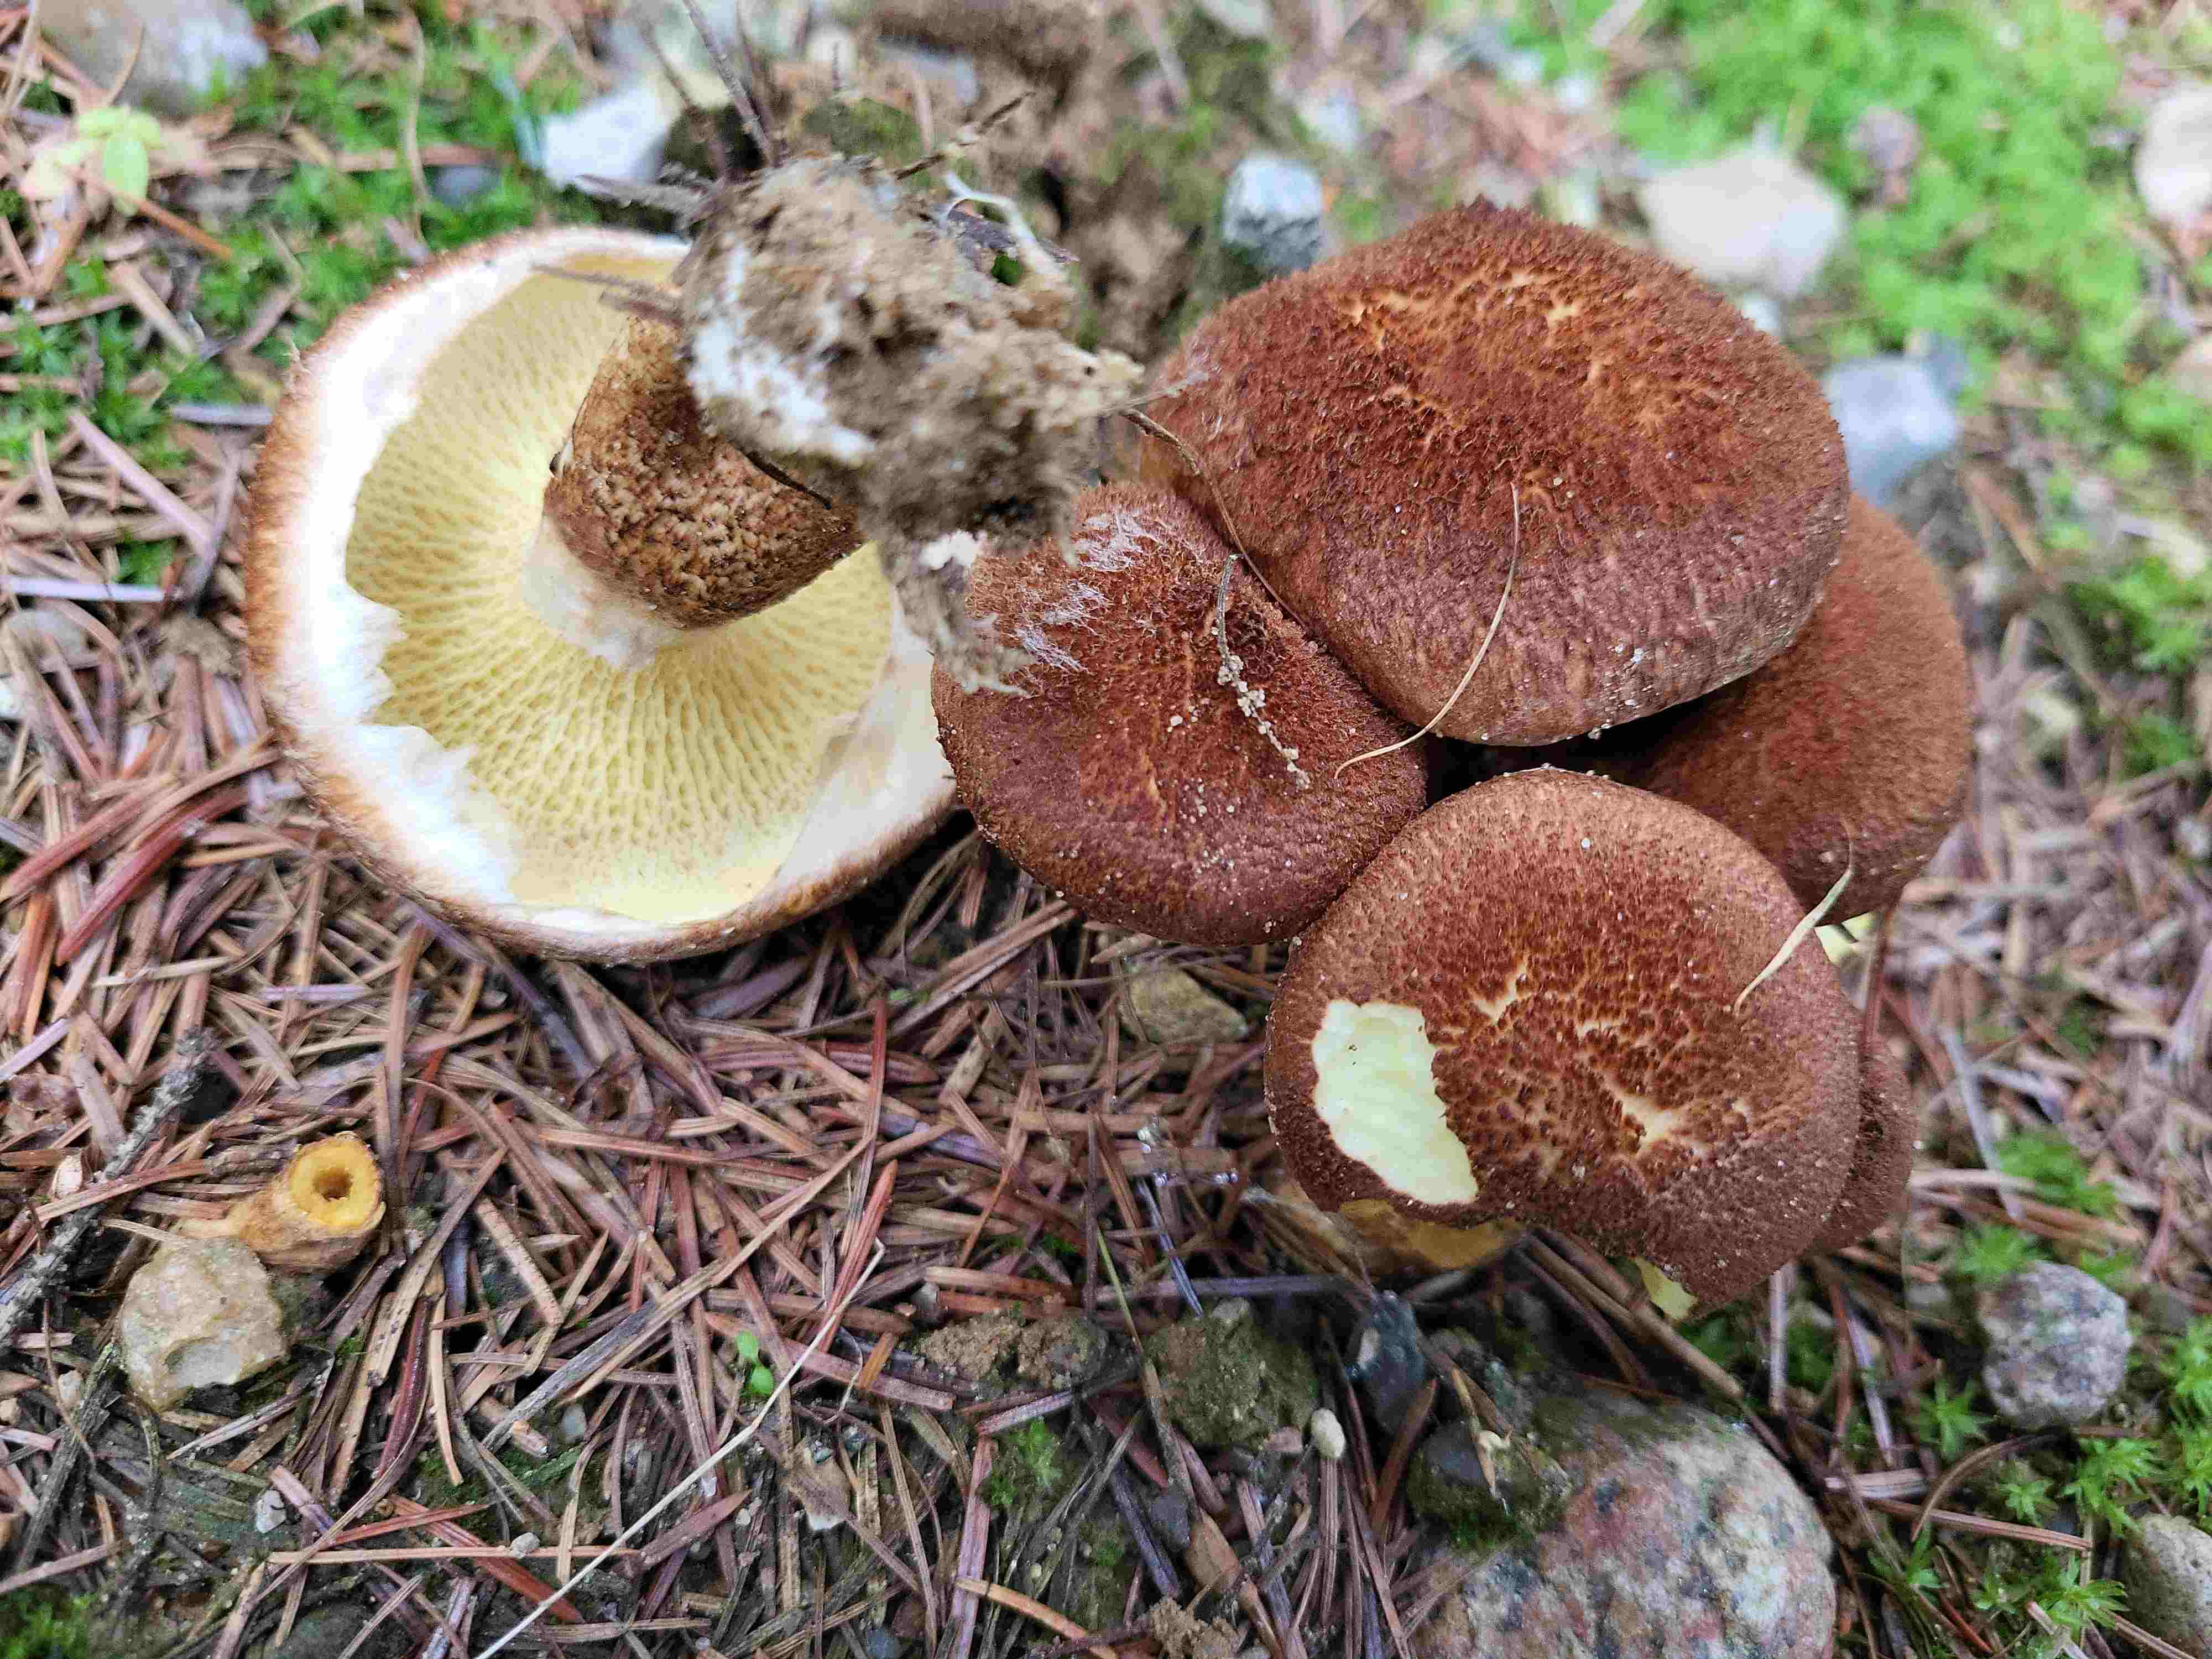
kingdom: Fungi
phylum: Basidiomycota
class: Agaricomycetes
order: Boletales
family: Suillaceae
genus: Suillus
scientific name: Suillus cavipes
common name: hulstokket slimrørhat
